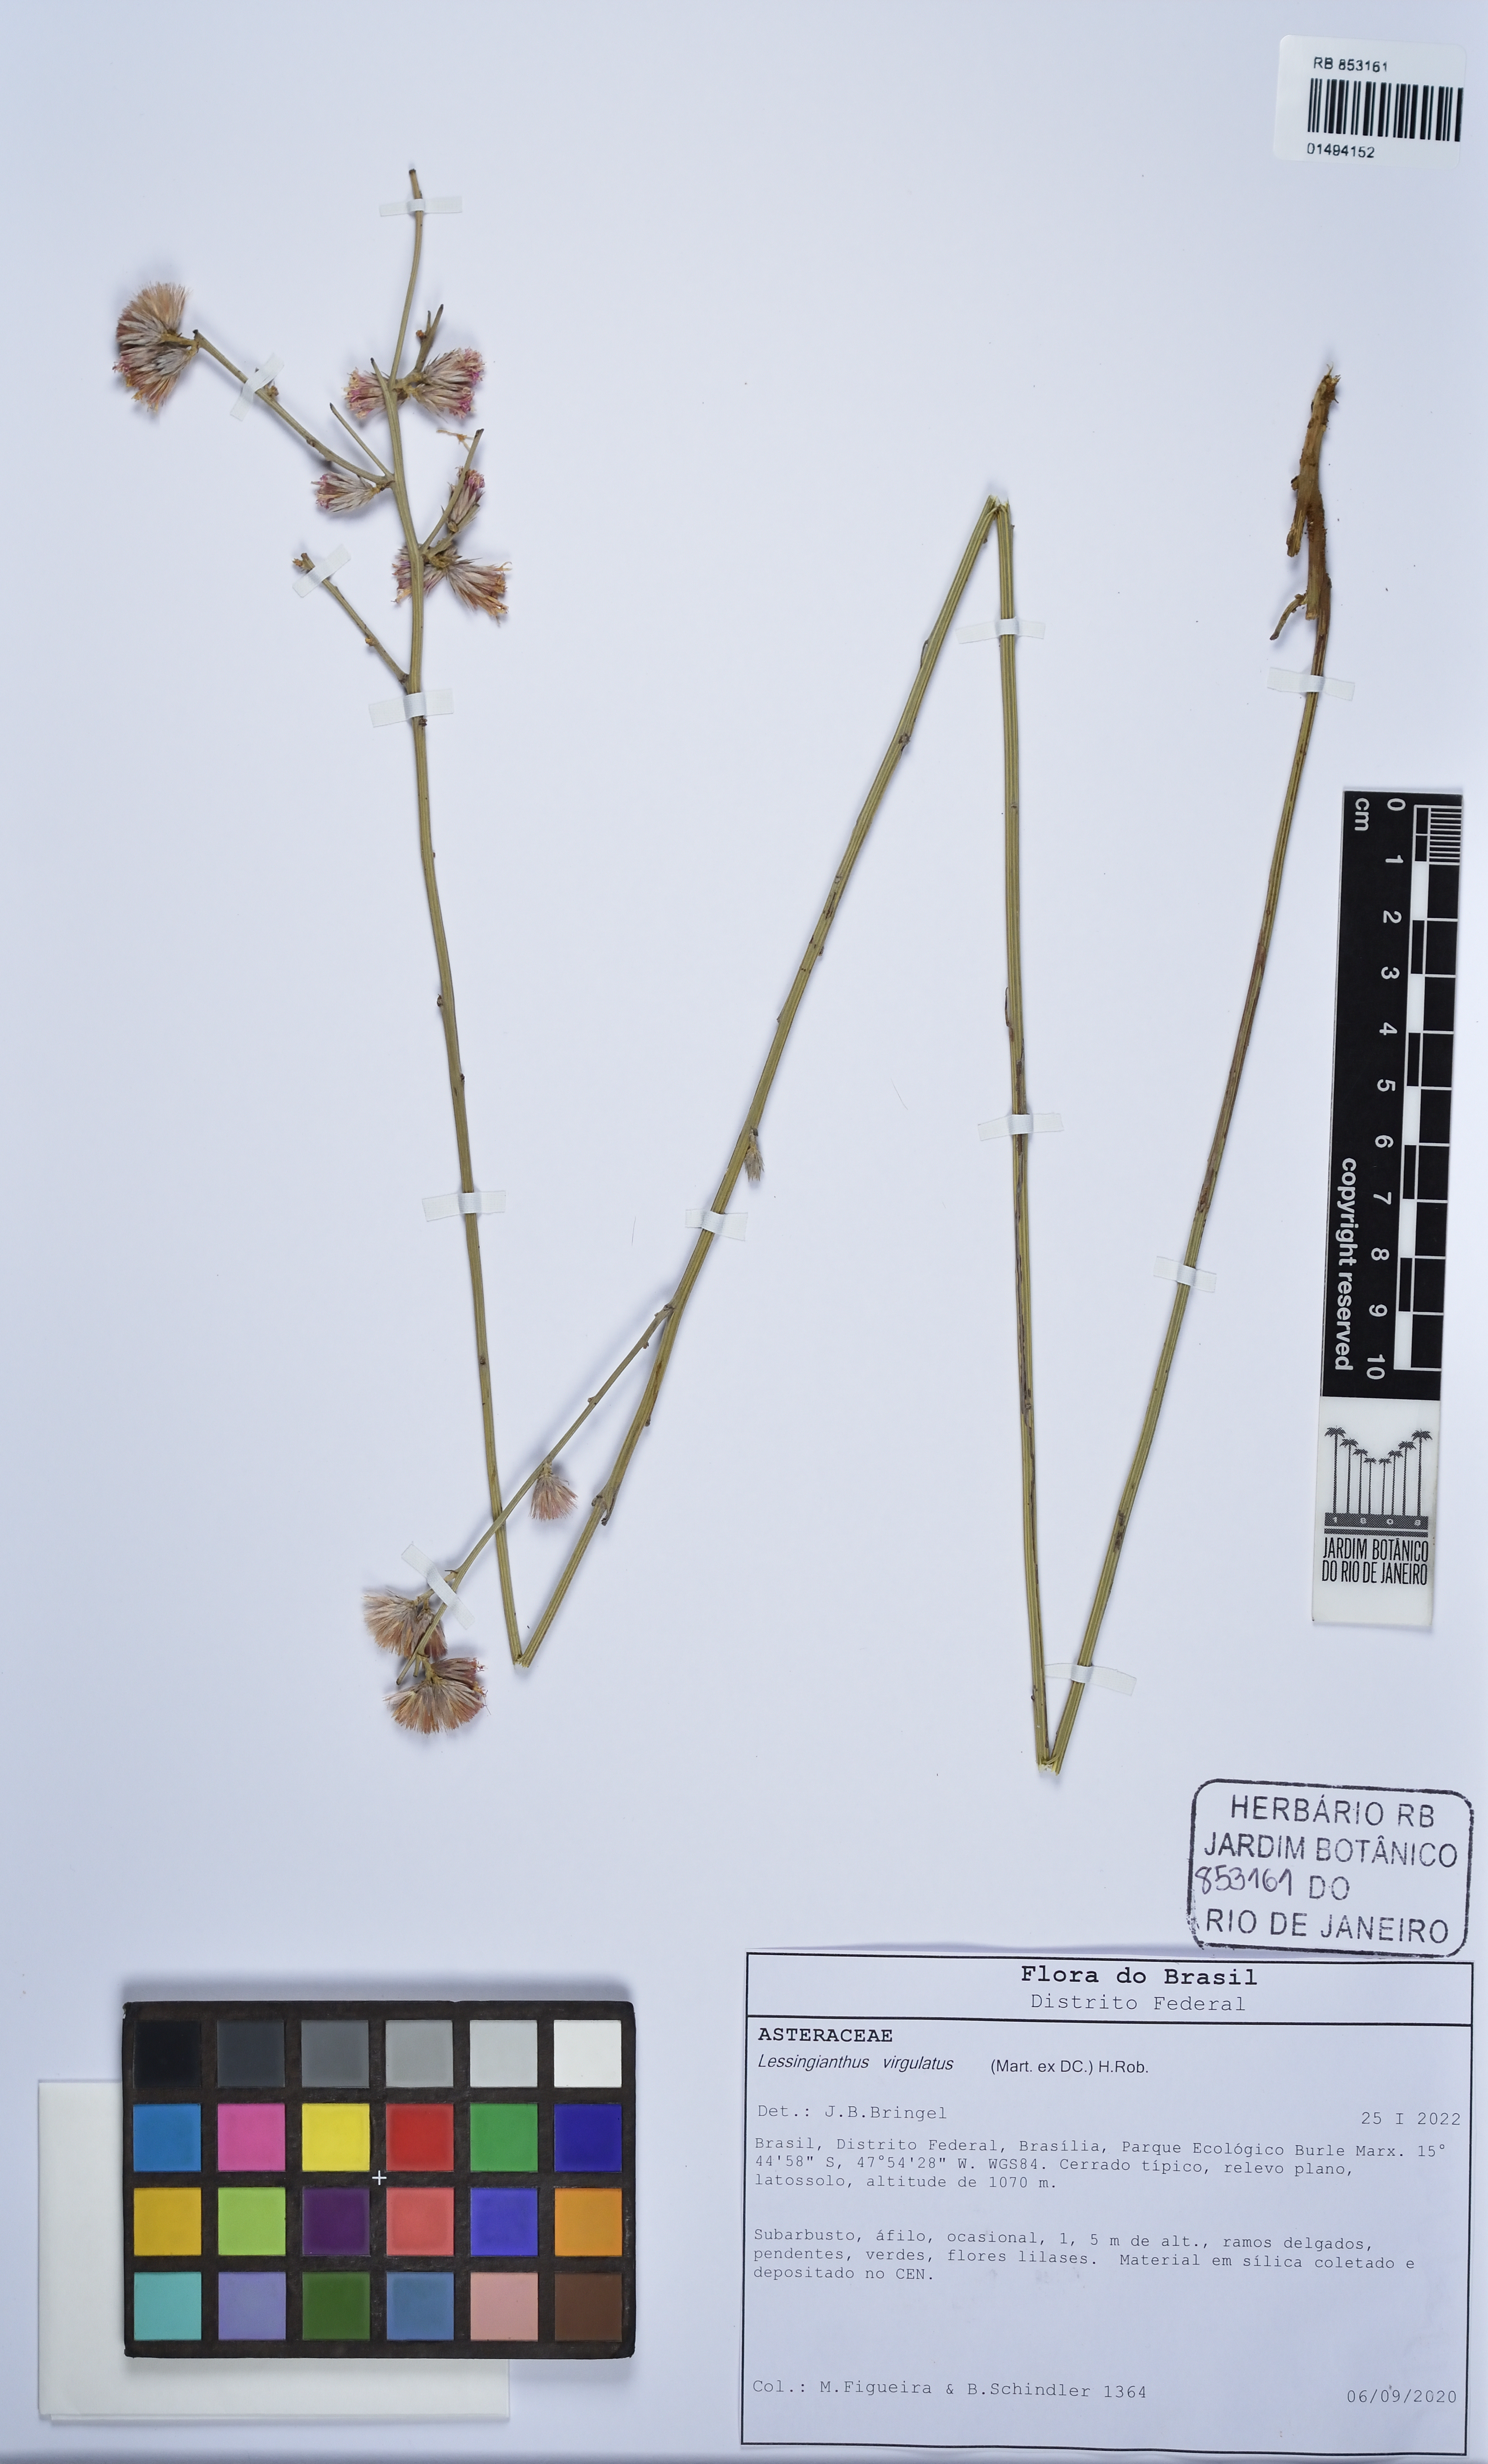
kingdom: Plantae
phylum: Tracheophyta
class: Magnoliopsida
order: Asterales
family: Asteraceae
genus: Lessingianthus
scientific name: Lessingianthus virgulatus
